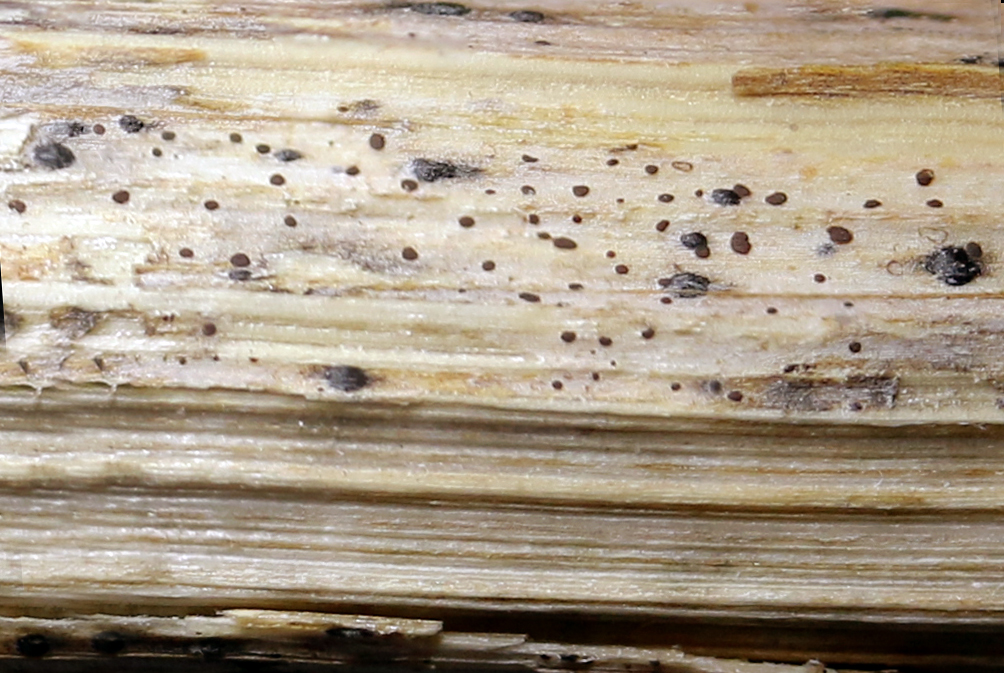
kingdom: Fungi
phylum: Ascomycota
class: Leotiomycetes
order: Helotiales
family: Ploettnerulaceae
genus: Cadophora
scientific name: Cadophora fallopiae
